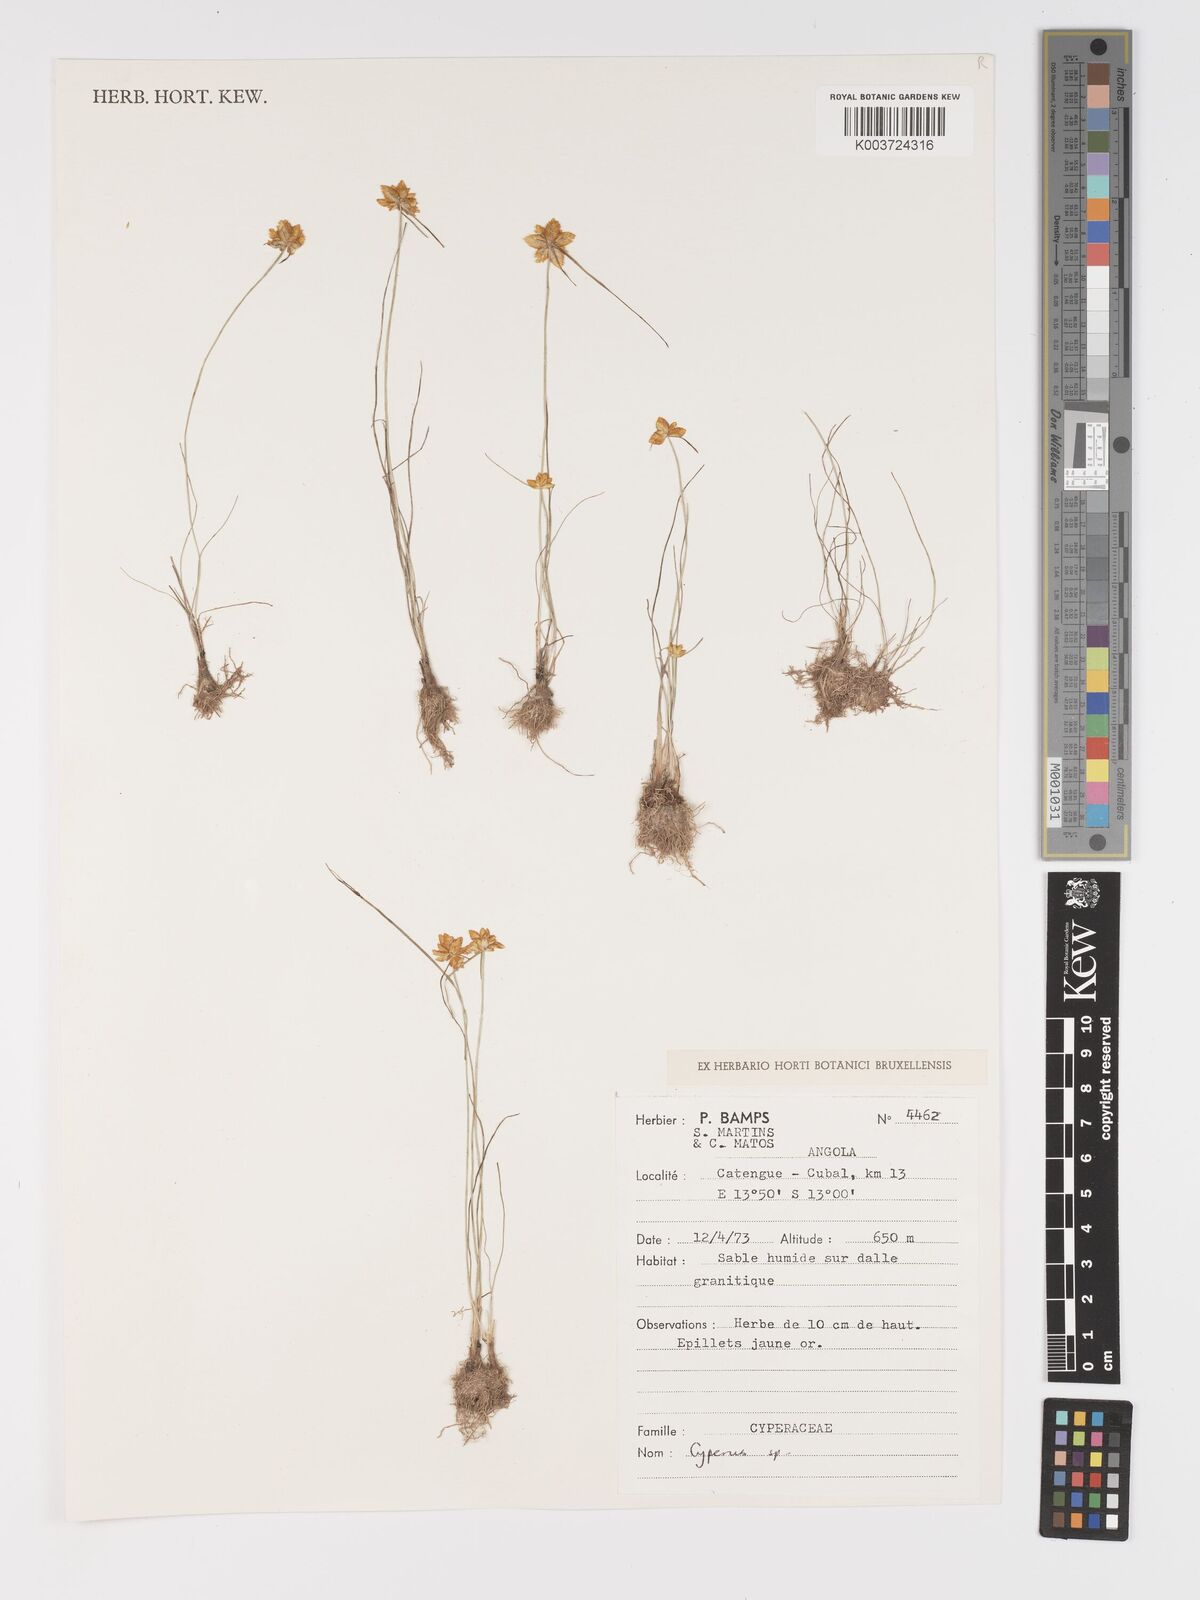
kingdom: Plantae
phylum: Tracheophyta
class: Liliopsida
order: Poales
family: Cyperaceae
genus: Cyperus
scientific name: Cyperus
